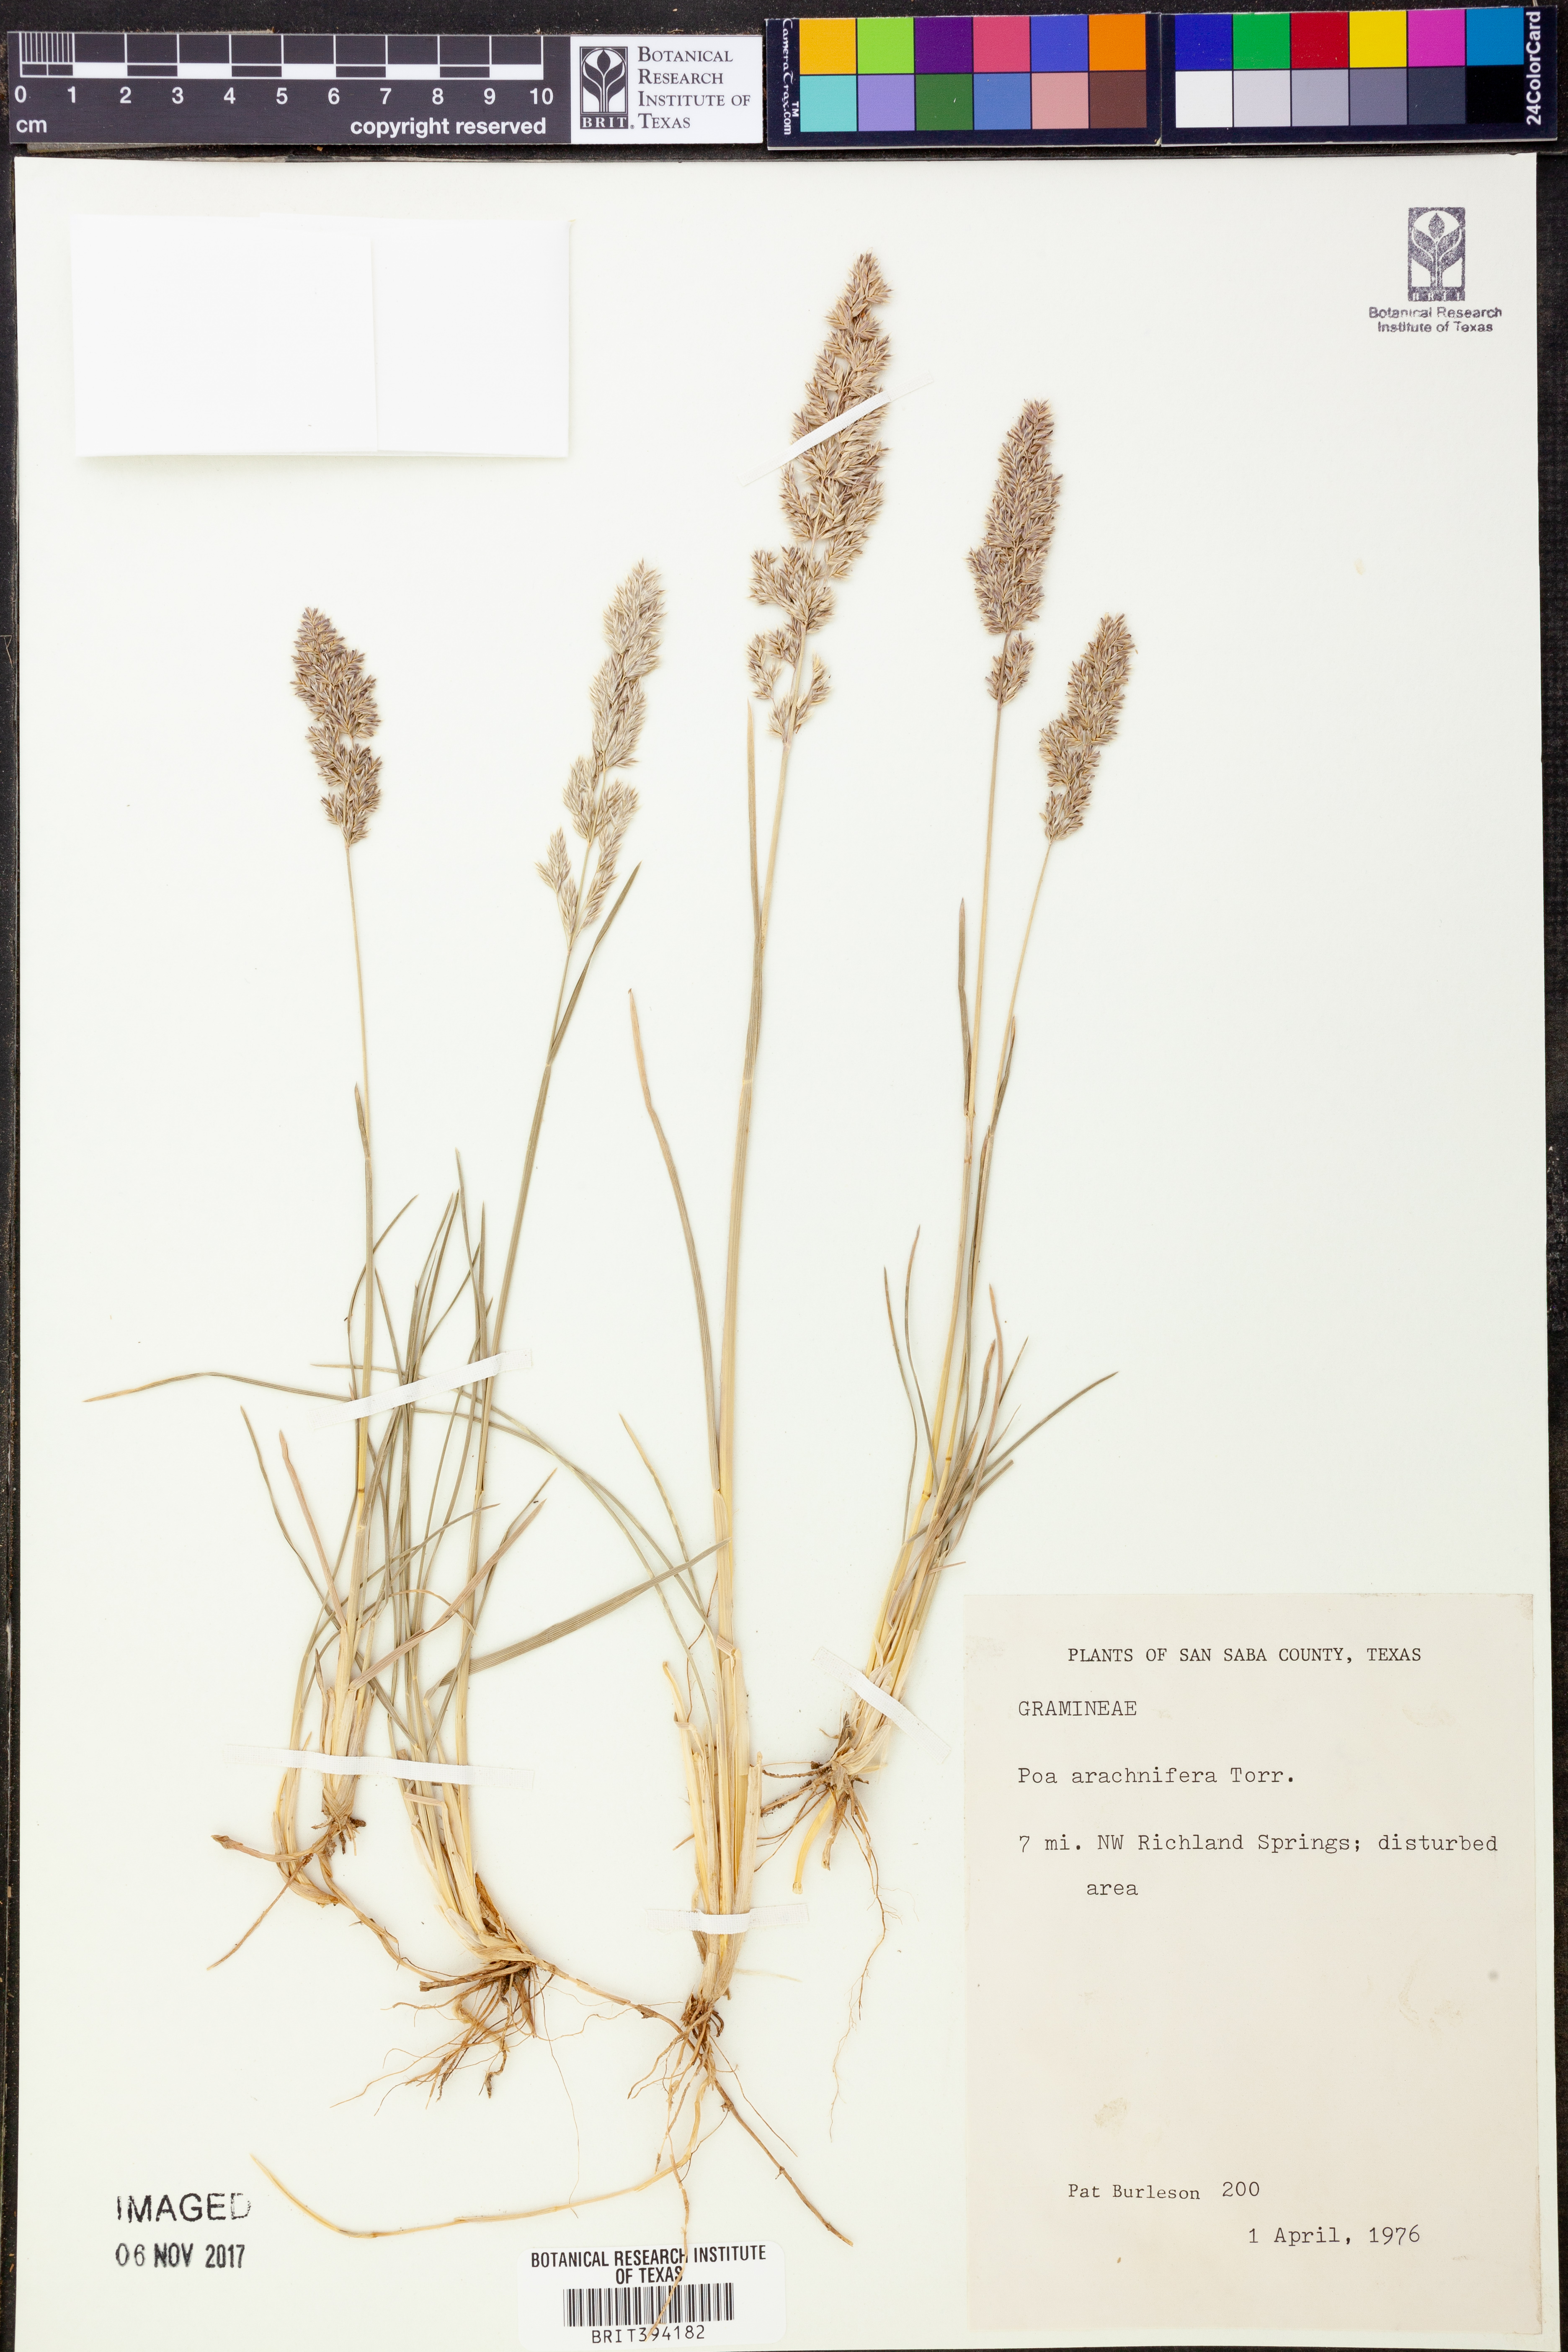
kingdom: Plantae
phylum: Tracheophyta
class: Liliopsida
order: Poales
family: Poaceae
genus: Poa
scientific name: Poa arachnifera
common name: Texas bluegrass
